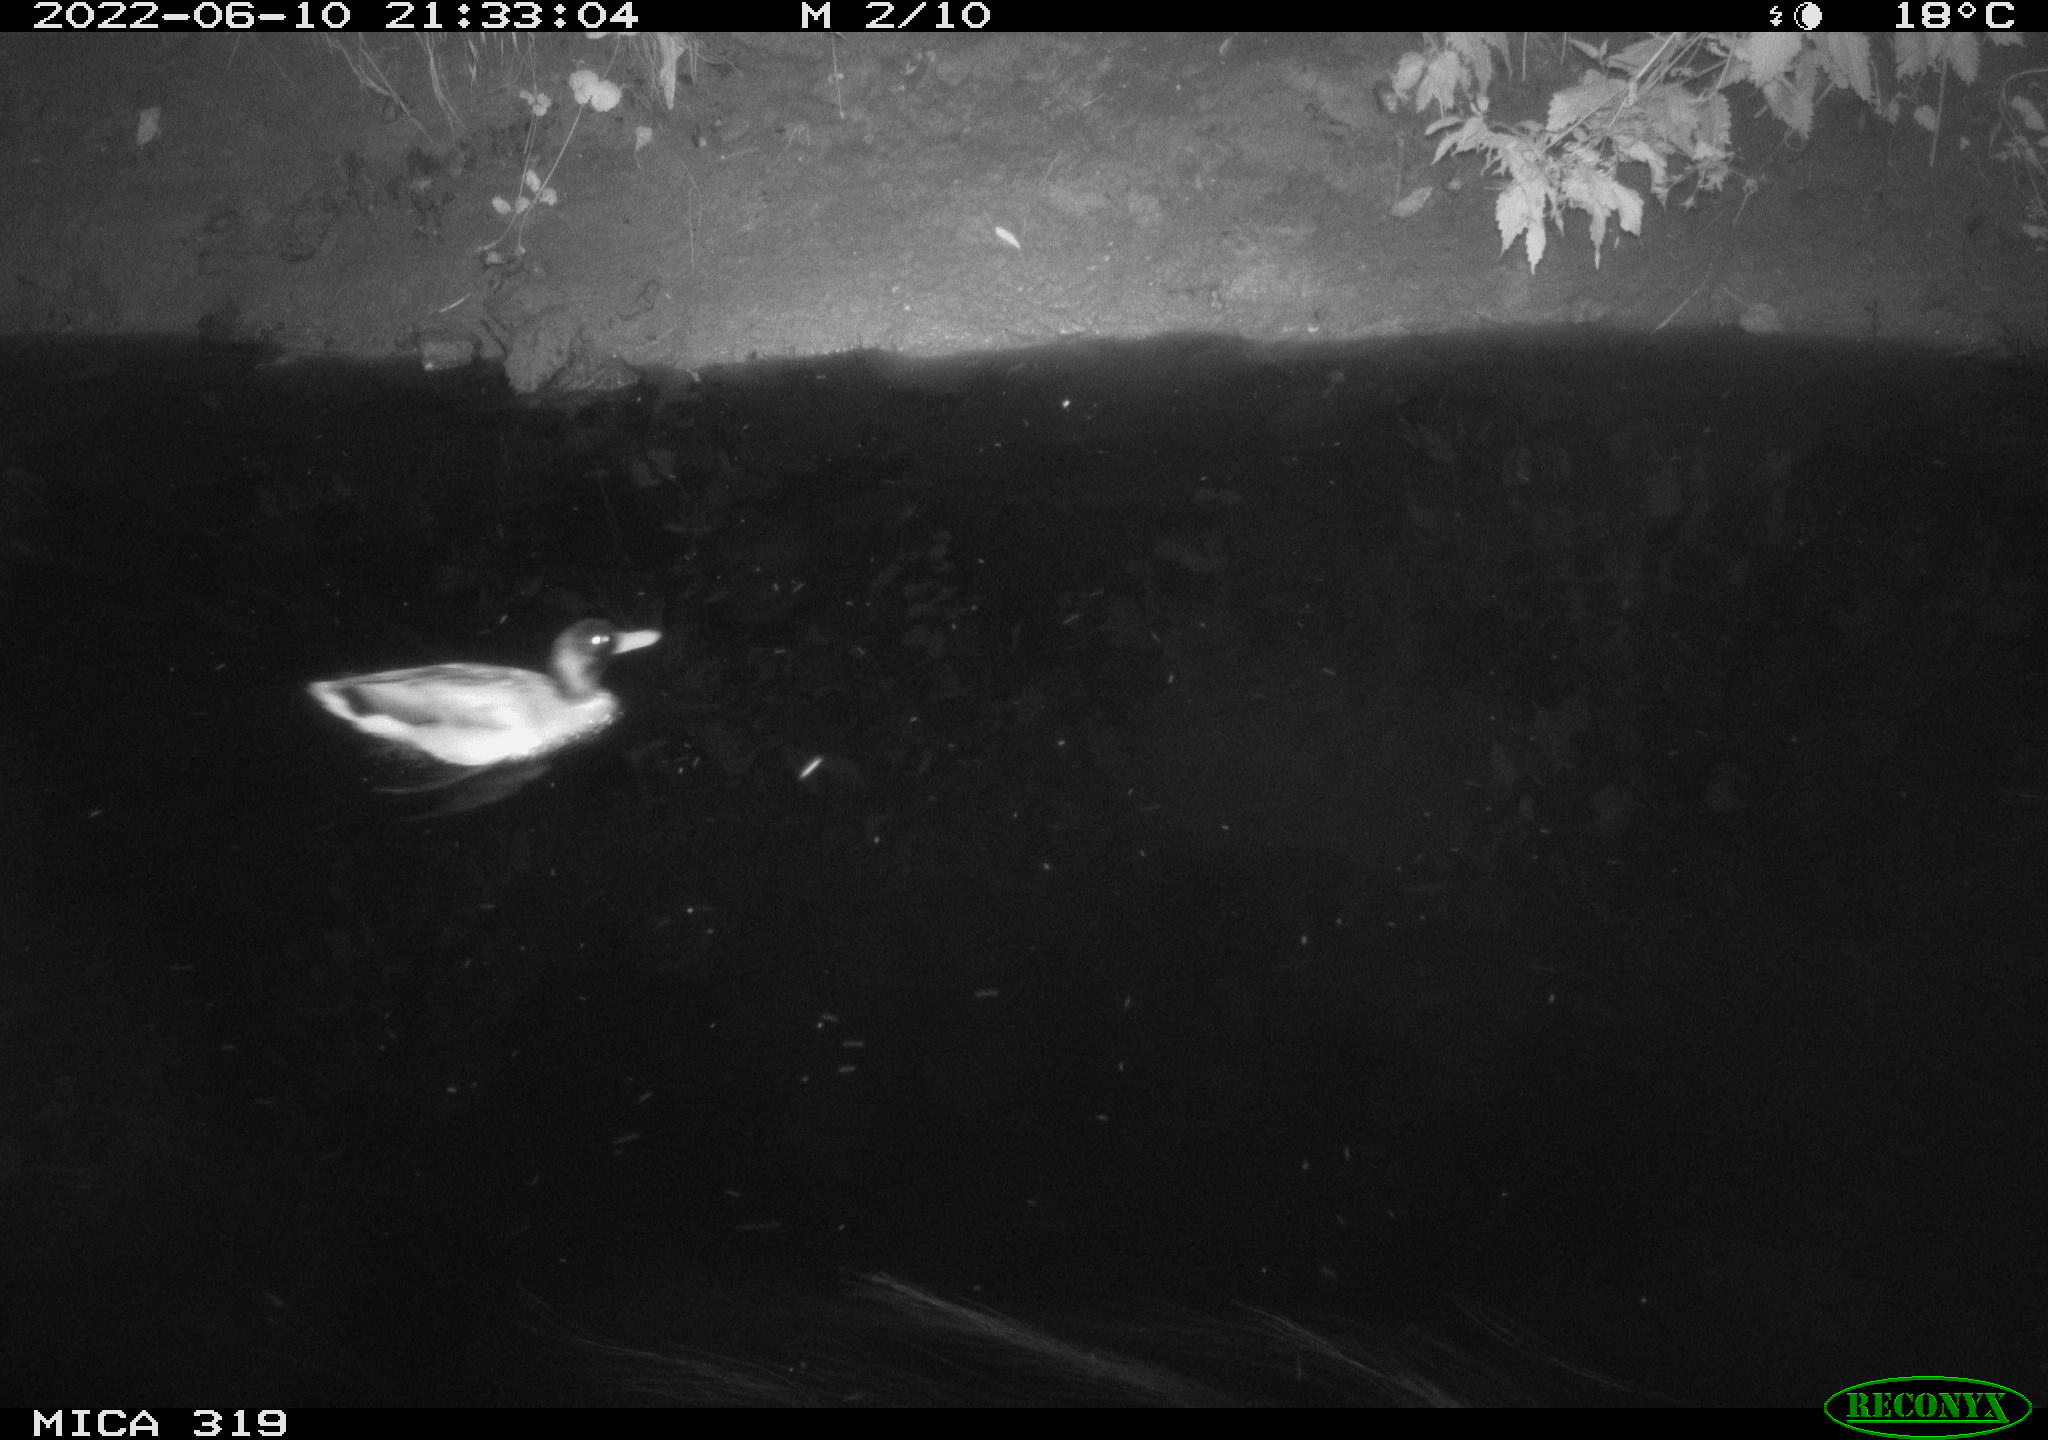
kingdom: Animalia
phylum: Chordata
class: Aves
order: Anseriformes
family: Anatidae
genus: Anas
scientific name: Anas
